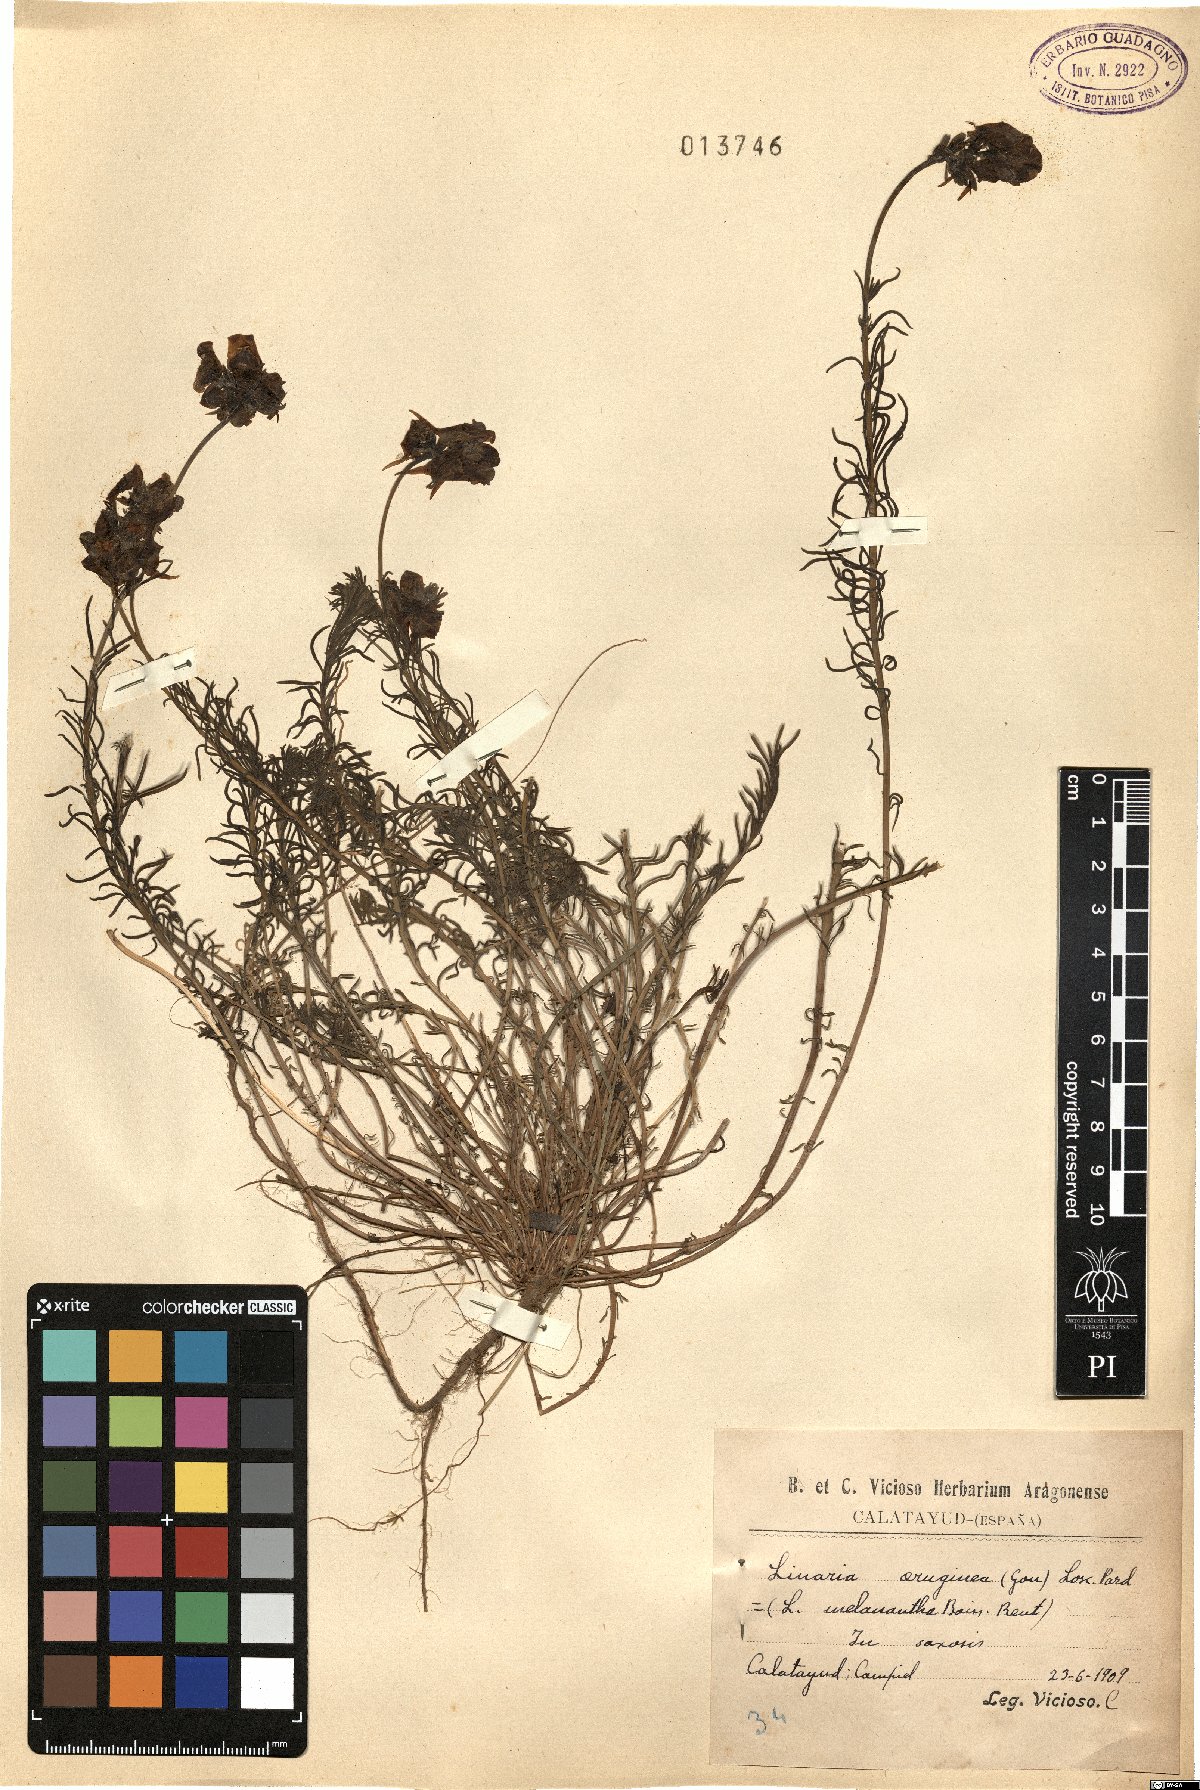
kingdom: Plantae
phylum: Tracheophyta
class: Magnoliopsida
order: Lamiales
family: Plantaginaceae
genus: Linaria
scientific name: Linaria aeruginea
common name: Roadside toadflax
